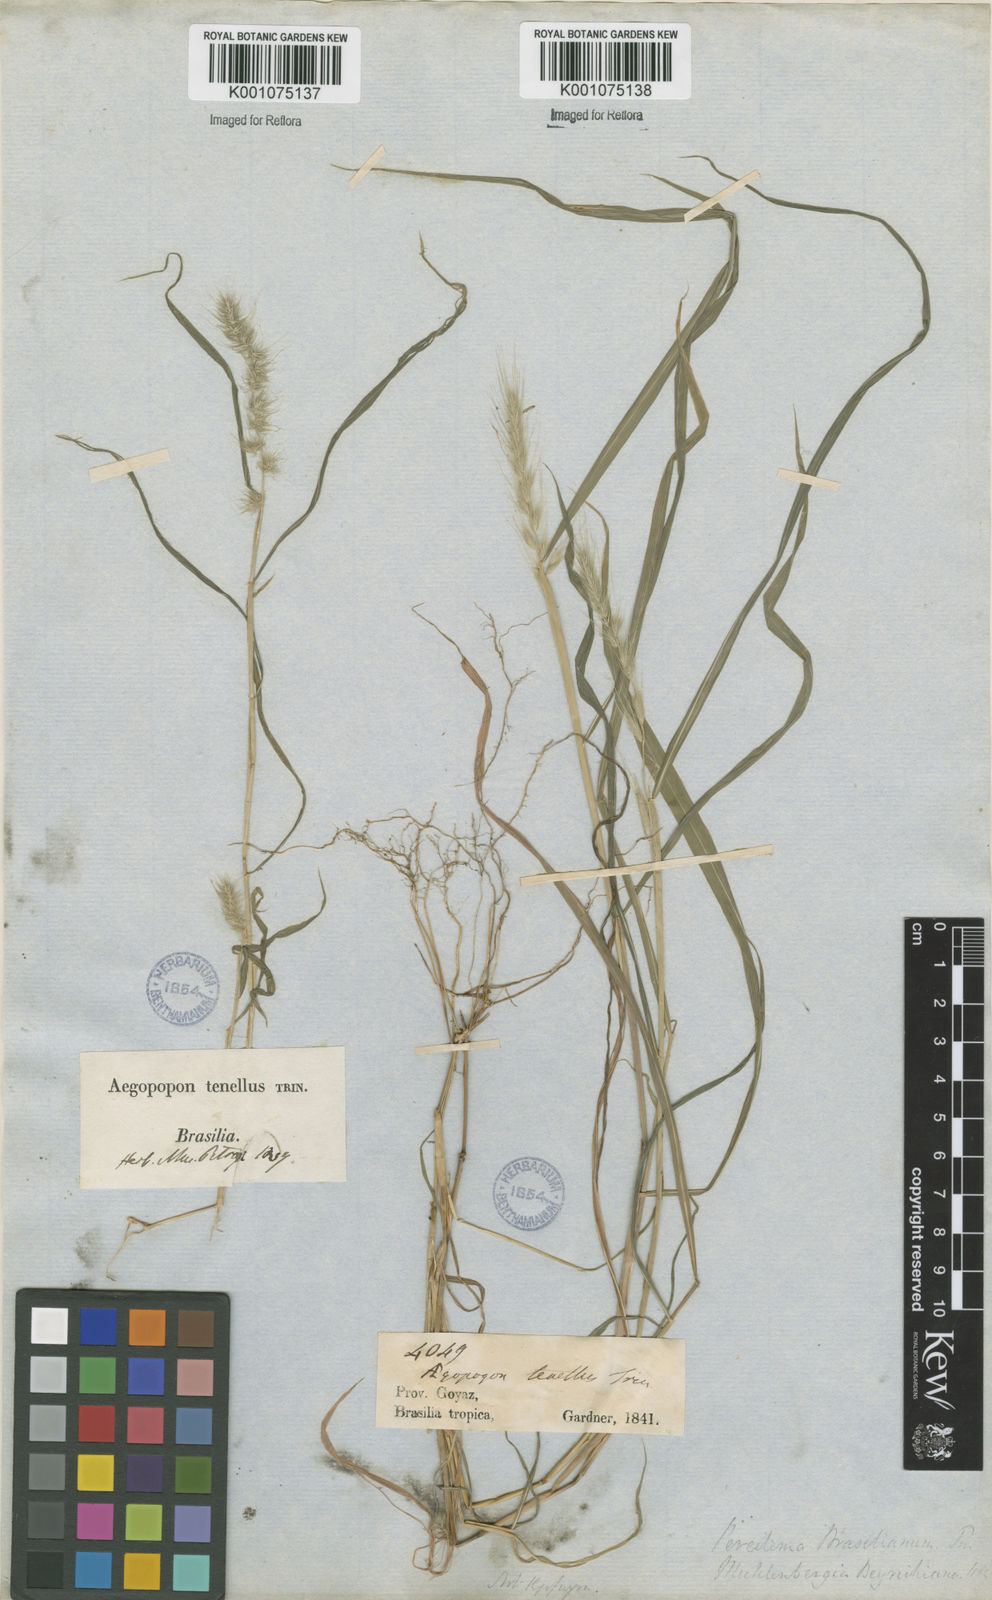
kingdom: Plantae
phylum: Tracheophyta
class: Liliopsida
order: Poales
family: Poaceae
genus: Muhlenbergia
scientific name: Muhlenbergia beyrichiana
